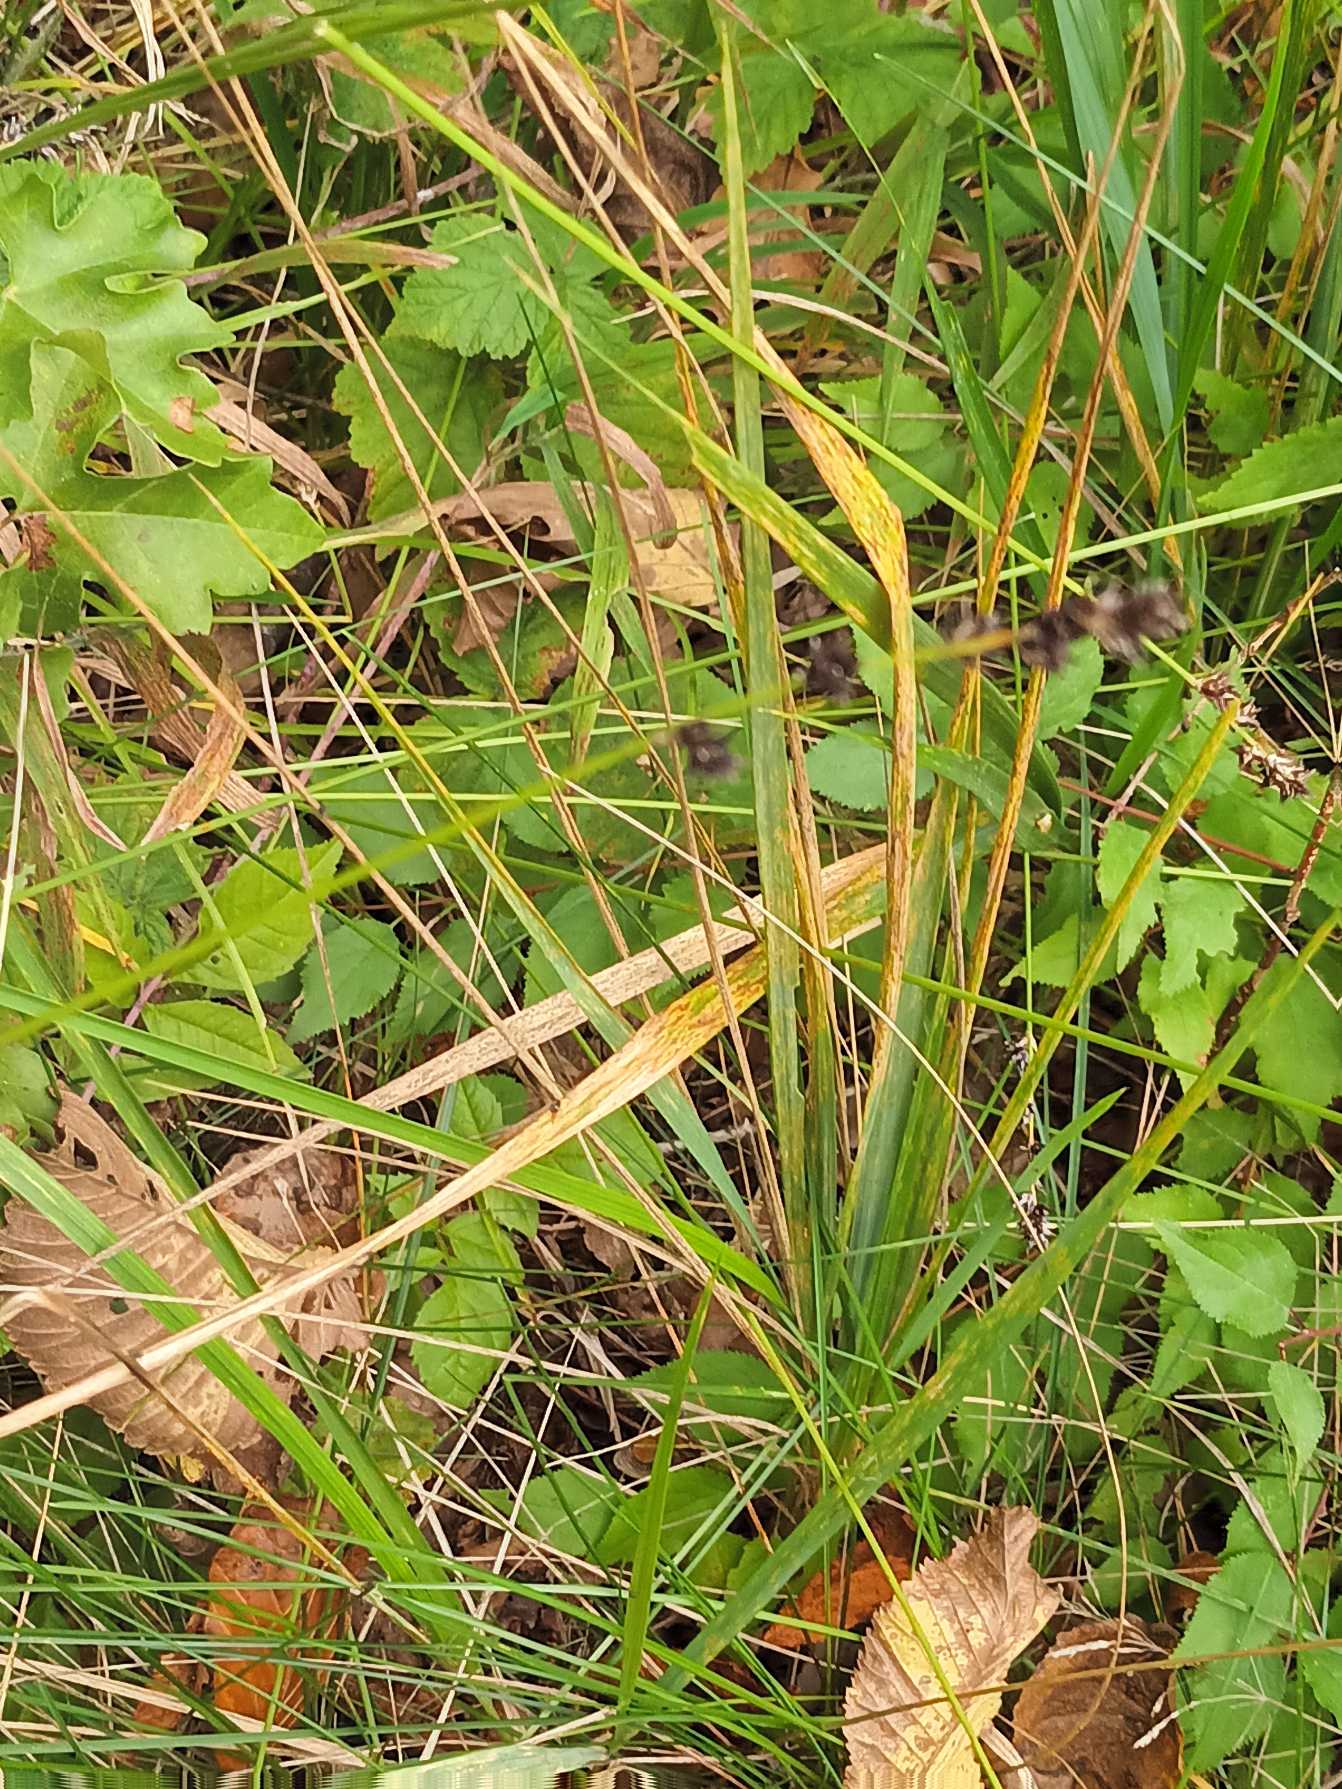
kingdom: Plantae
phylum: Tracheophyta
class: Liliopsida
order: Poales
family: Cyperaceae
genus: Carex
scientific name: Carex divulsa
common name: Mellembrudt star
